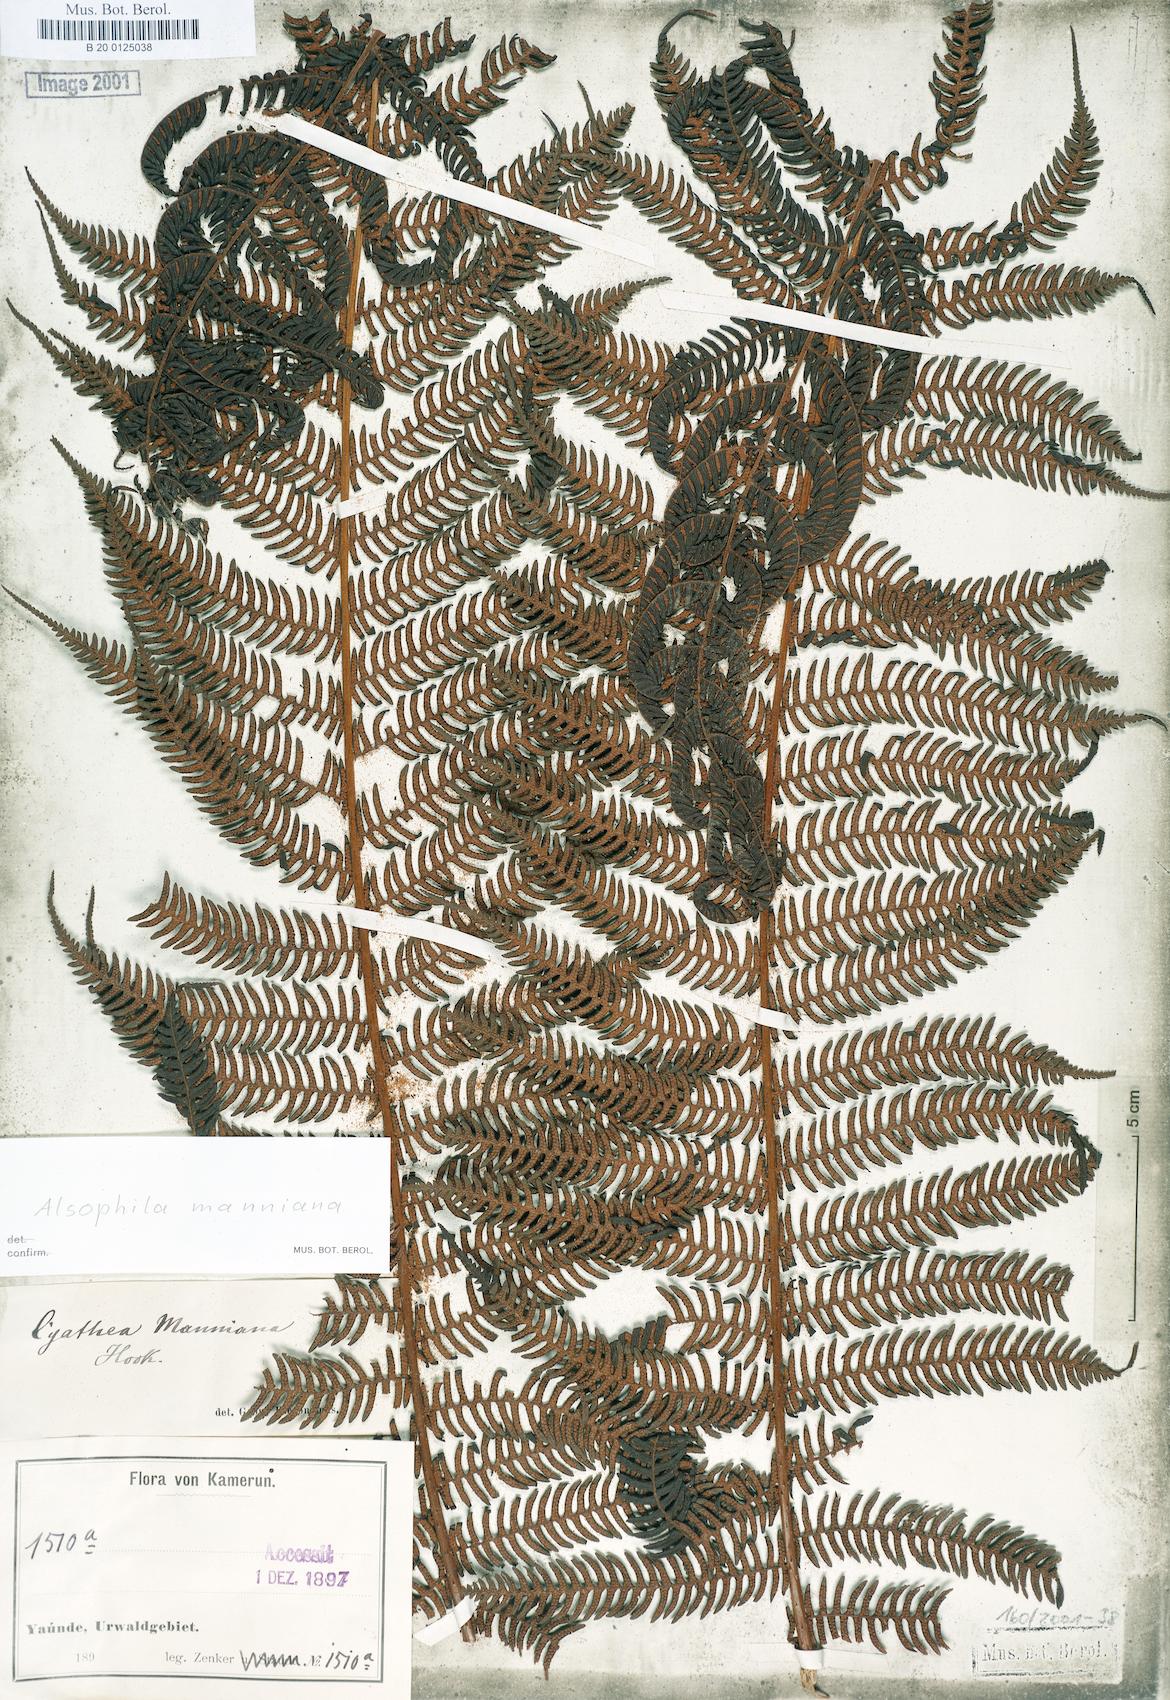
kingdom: Plantae
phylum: Tracheophyta
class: Polypodiopsida
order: Cyatheales
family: Cyatheaceae
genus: Alsophila
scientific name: Alsophila manniana
